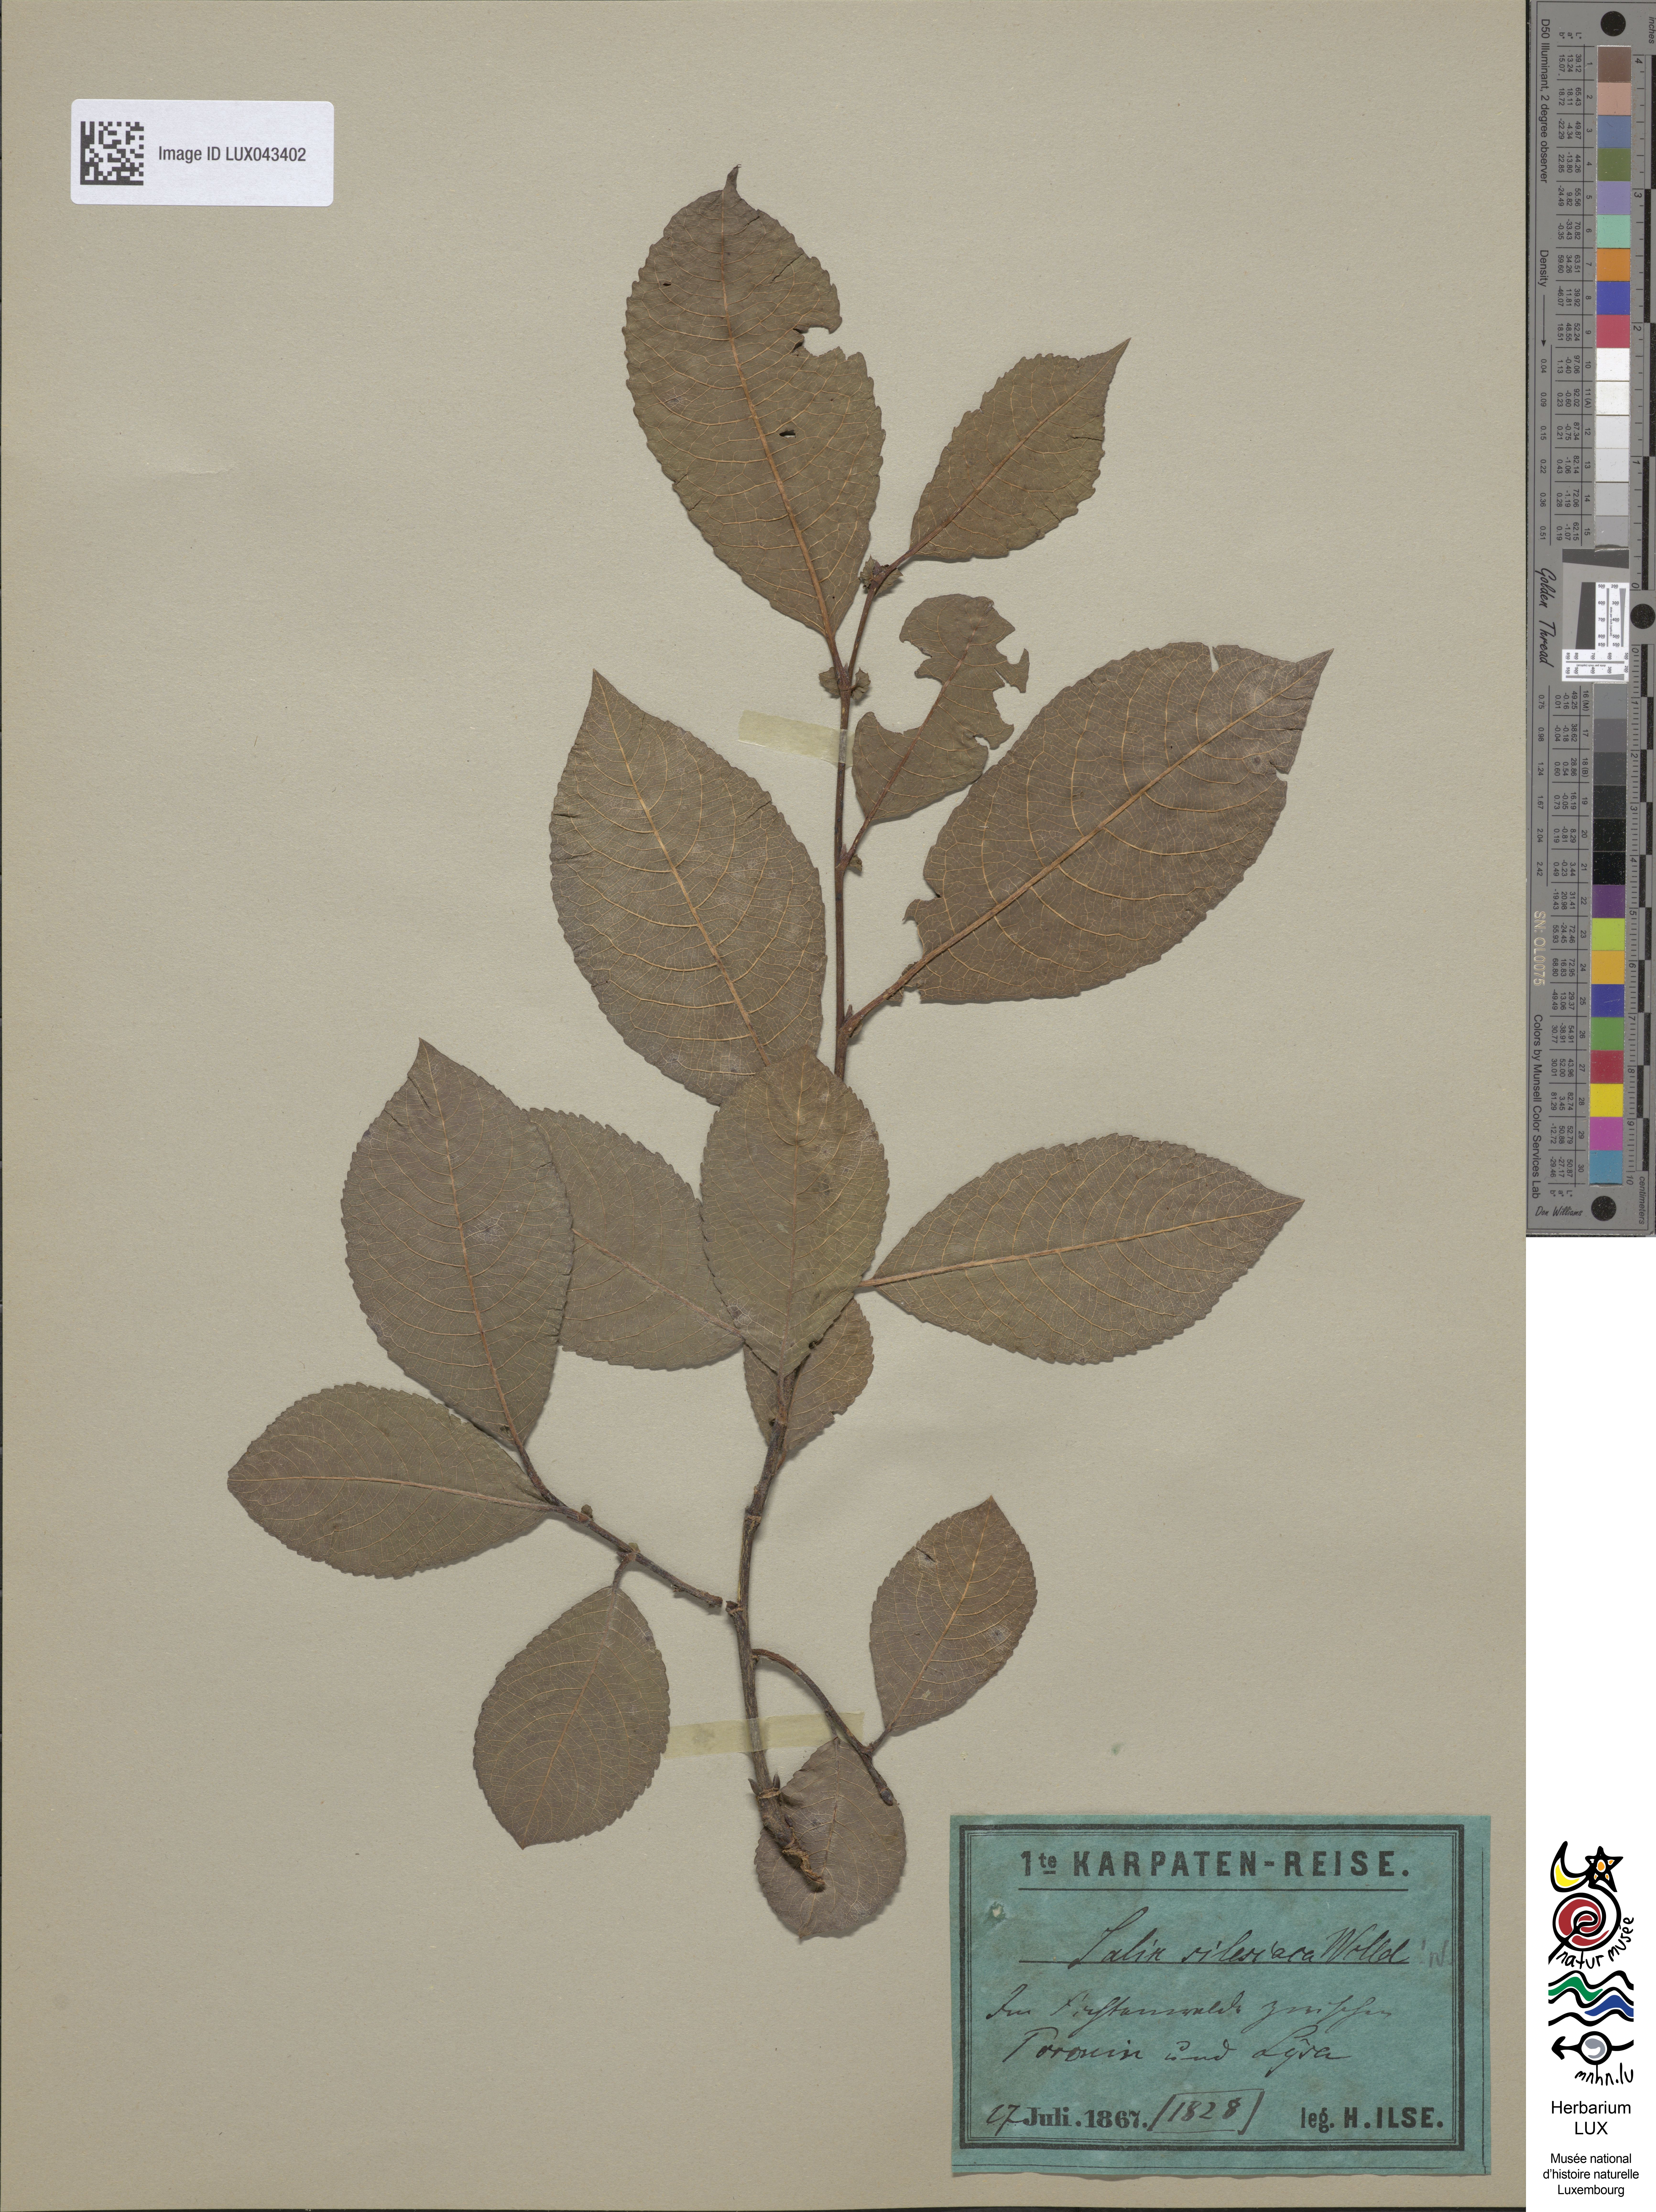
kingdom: Plantae
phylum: Tracheophyta
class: Magnoliopsida
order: Malpighiales
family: Salicaceae
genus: Salix
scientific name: Salix silesiaca
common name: Silesian willow
